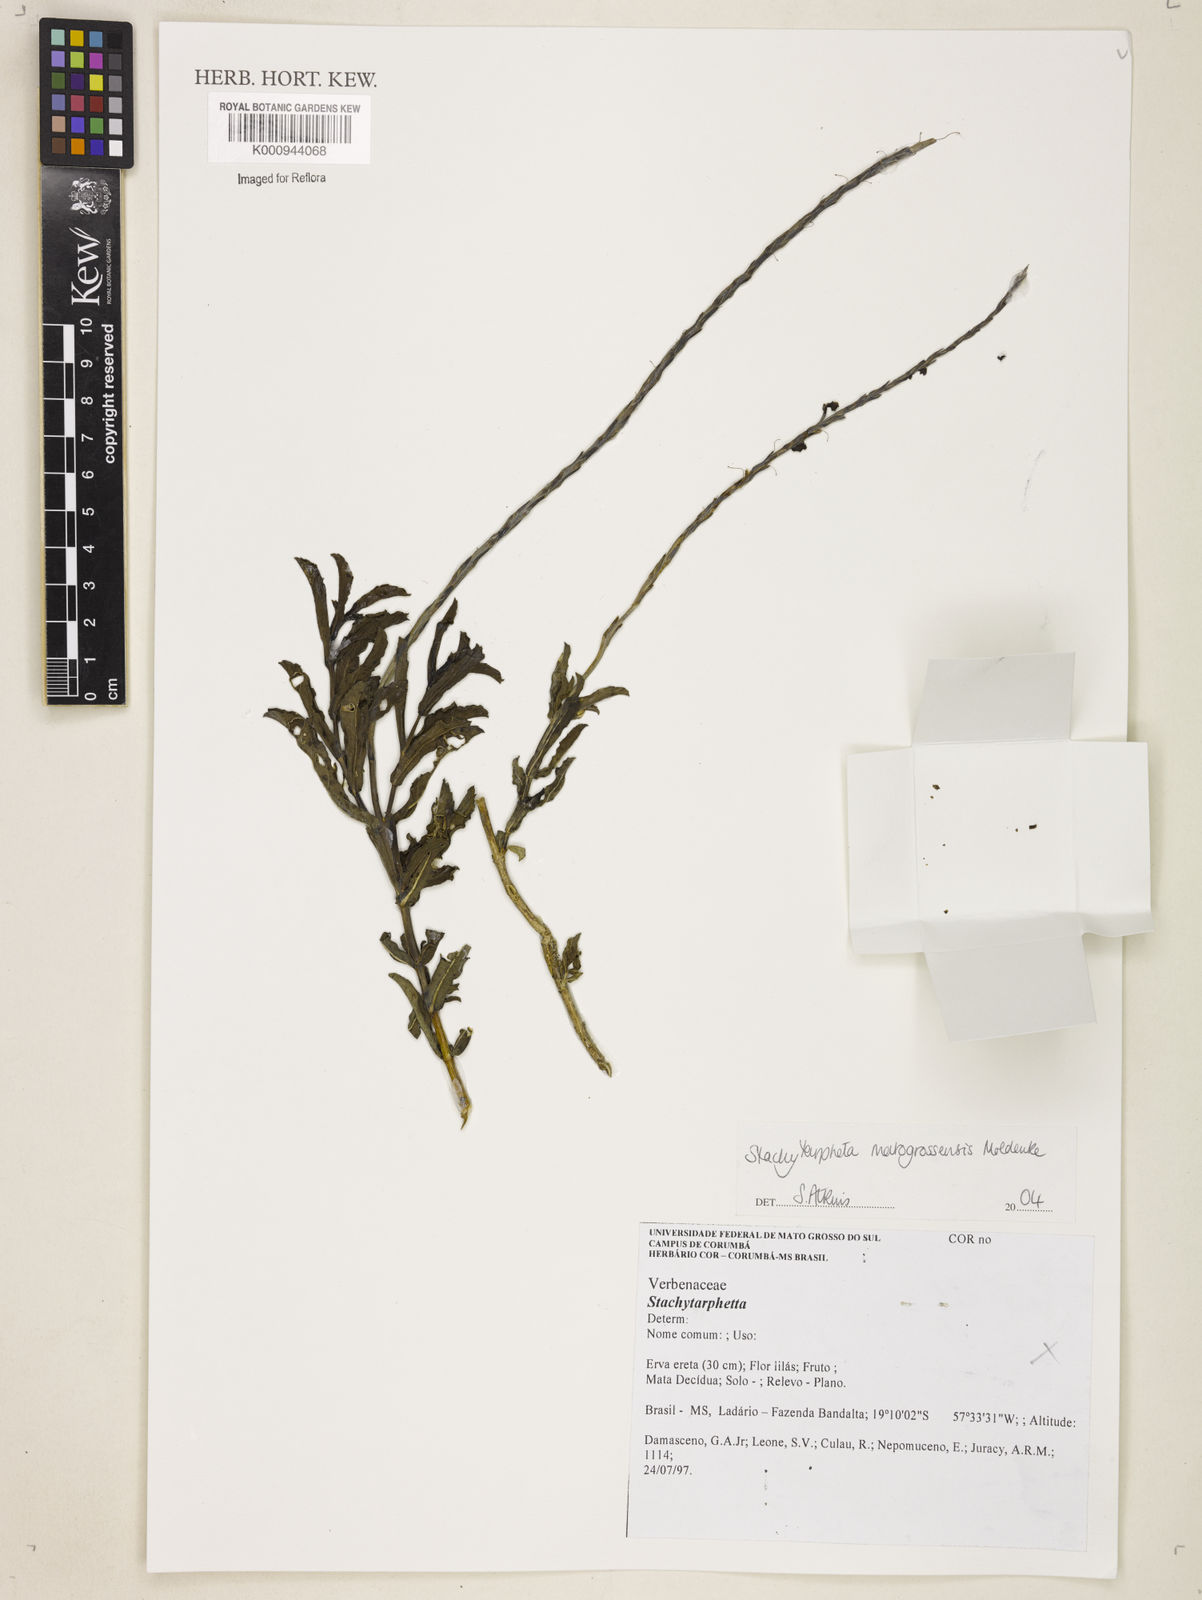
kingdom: Plantae
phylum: Tracheophyta
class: Magnoliopsida
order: Lamiales
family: Verbenaceae
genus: Stachytarpheta
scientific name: Stachytarpheta matogrossensis
